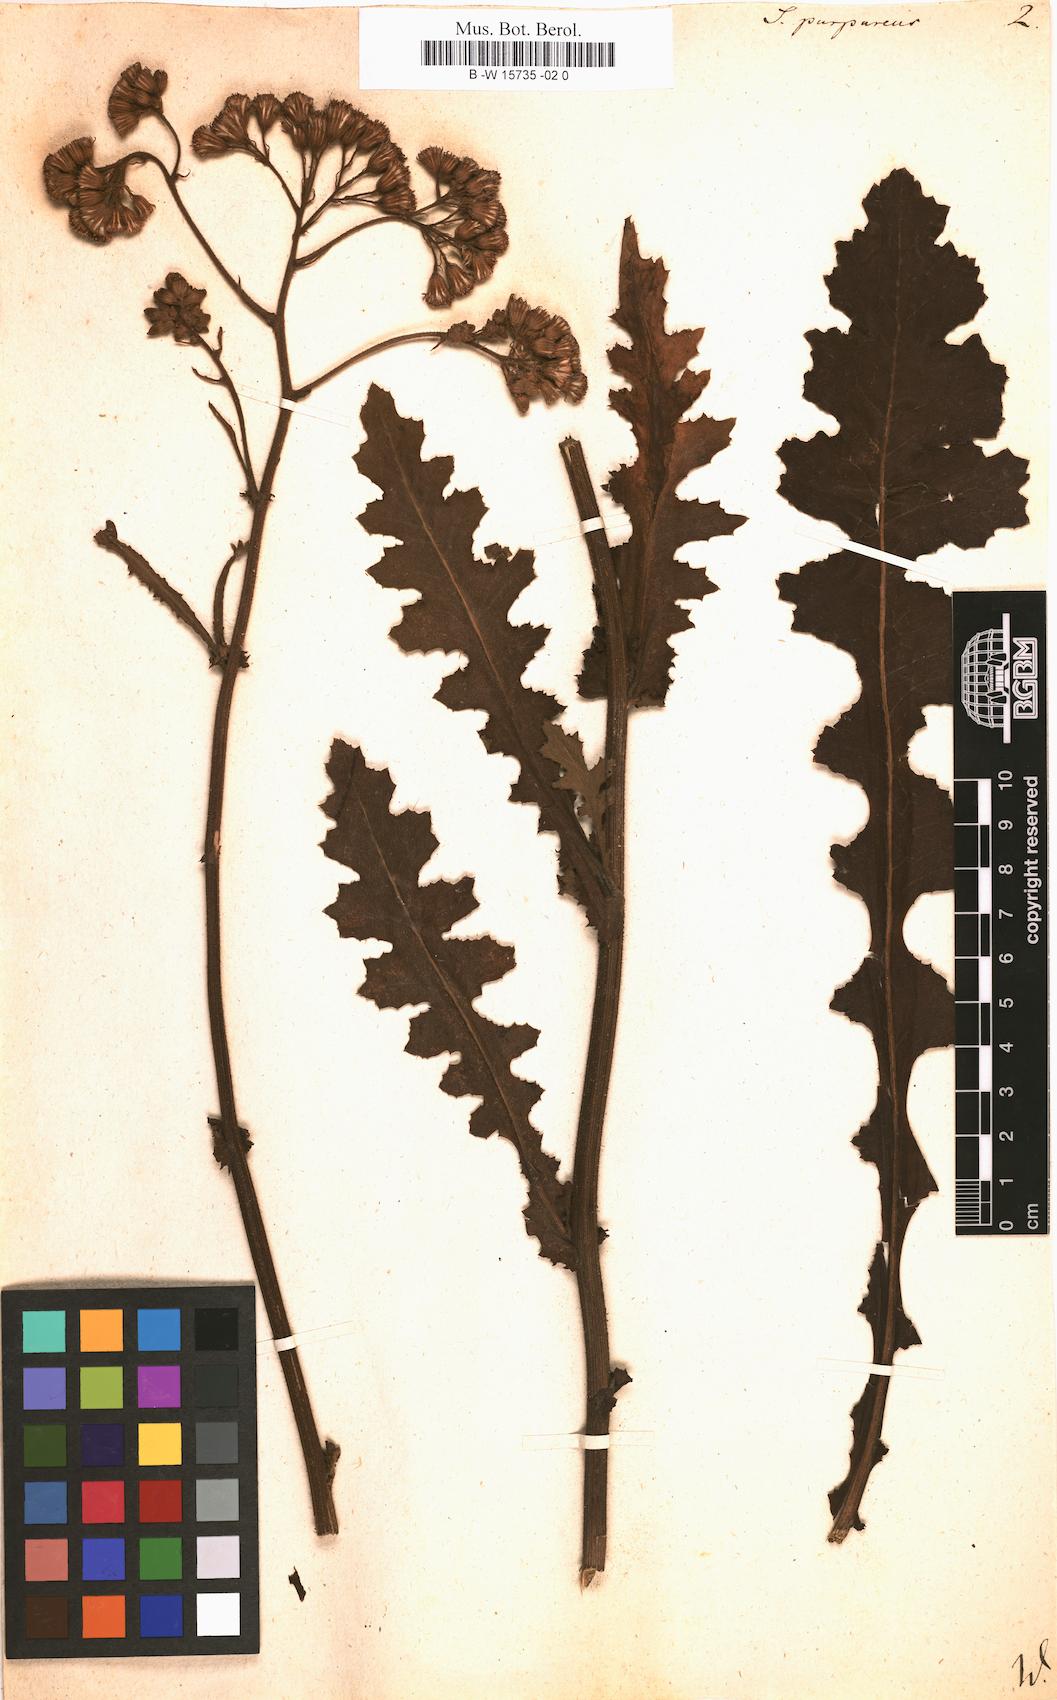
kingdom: Plantae
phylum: Tracheophyta
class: Magnoliopsida
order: Asterales
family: Asteraceae
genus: Senecio
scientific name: Senecio purpureus
